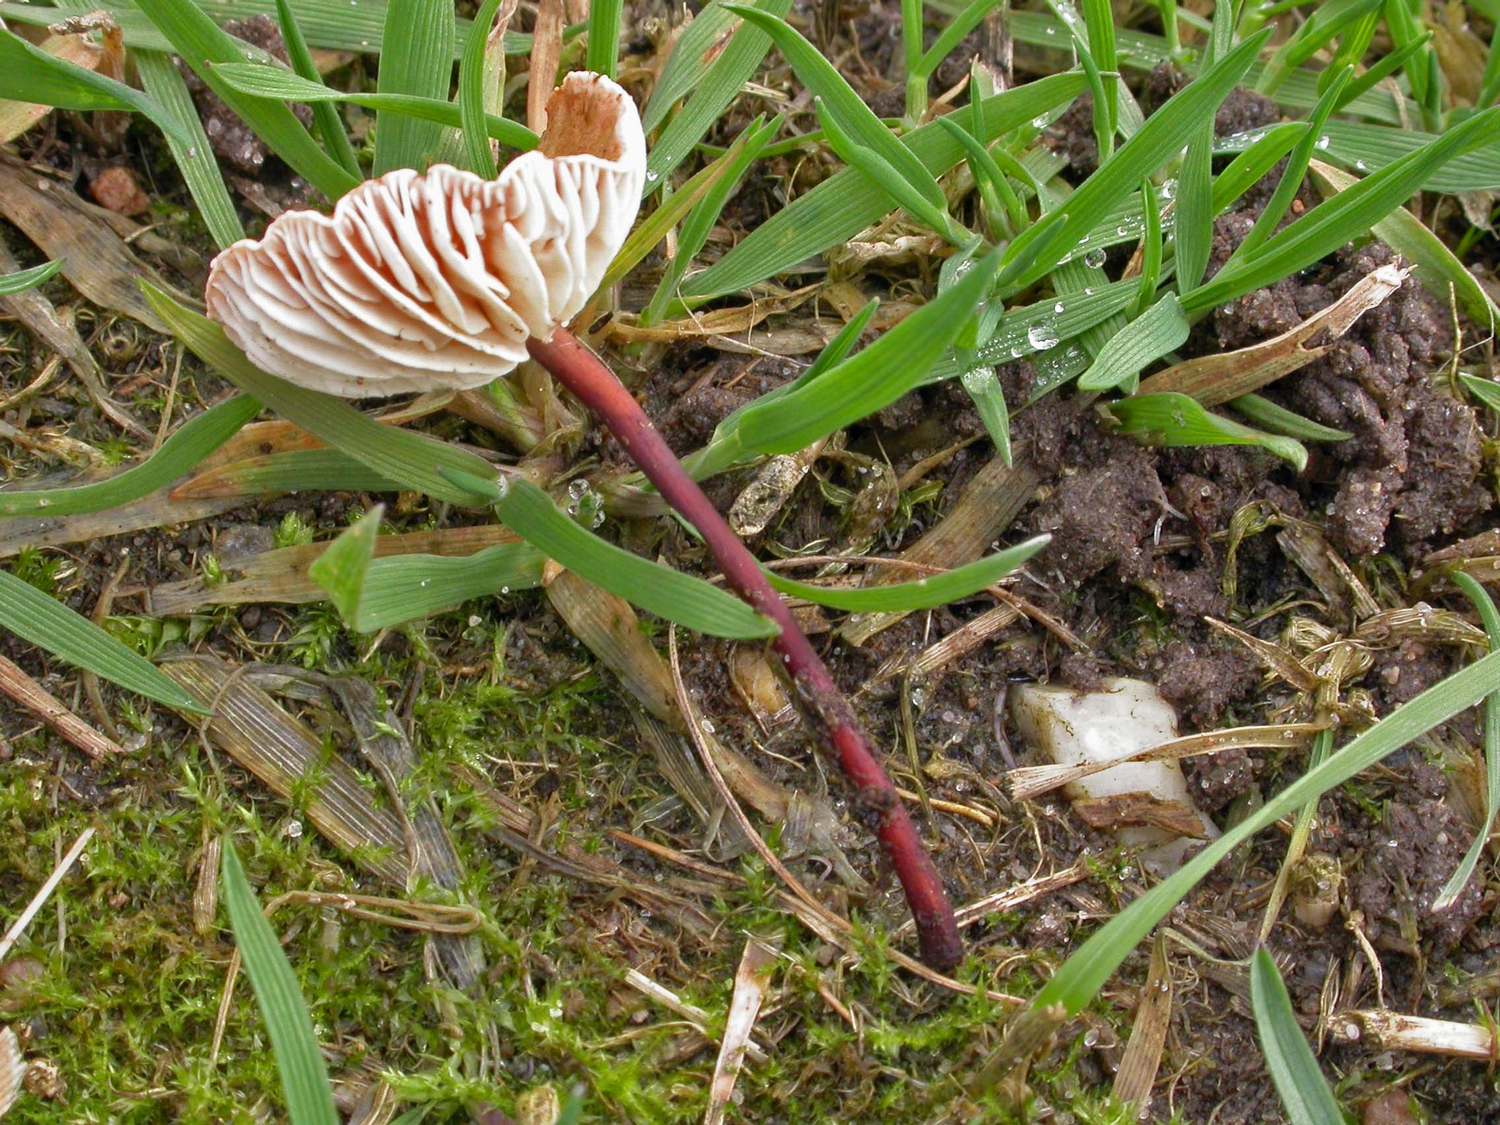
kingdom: Fungi
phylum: Basidiomycota
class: Agaricomycetes
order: Agaricales
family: Omphalotaceae
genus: Mycetinis
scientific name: Mycetinis scorodonius
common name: lille løghat
